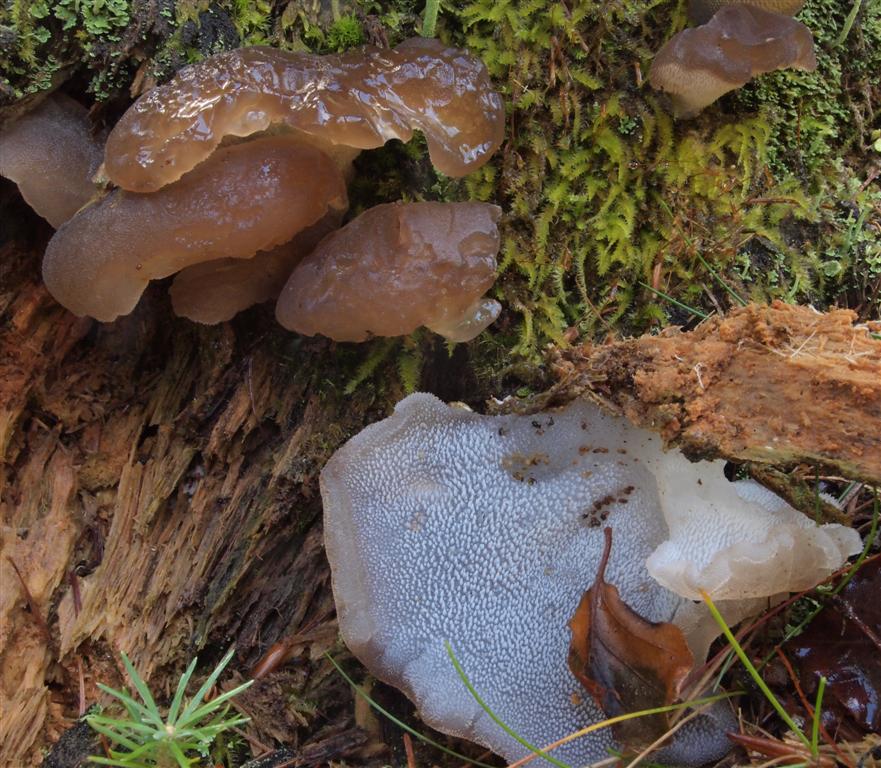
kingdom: Fungi
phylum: Basidiomycota
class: Agaricomycetes
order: Auriculariales
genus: Pseudohydnum
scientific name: Pseudohydnum gelatinosum
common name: bævretand
